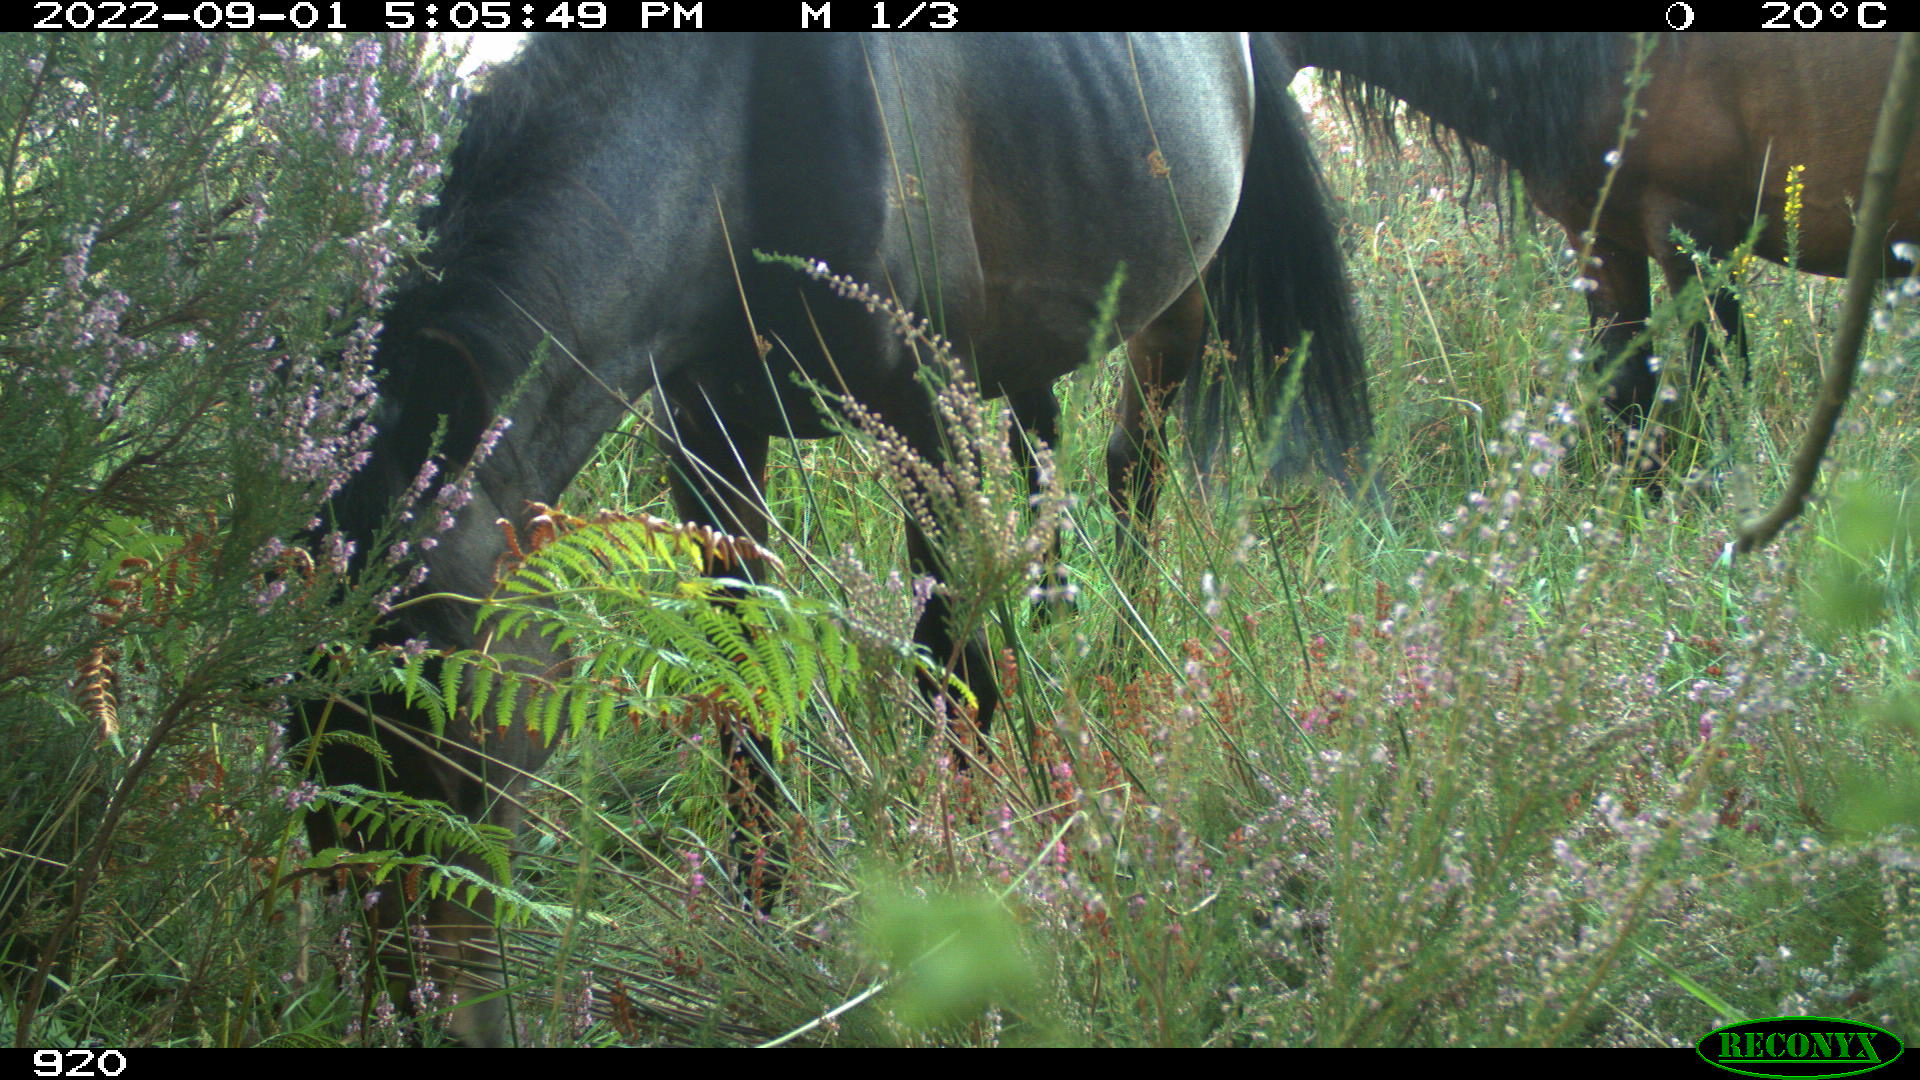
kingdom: Animalia
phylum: Chordata
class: Mammalia
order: Perissodactyla
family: Equidae
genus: Equus
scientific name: Equus caballus
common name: Horse
